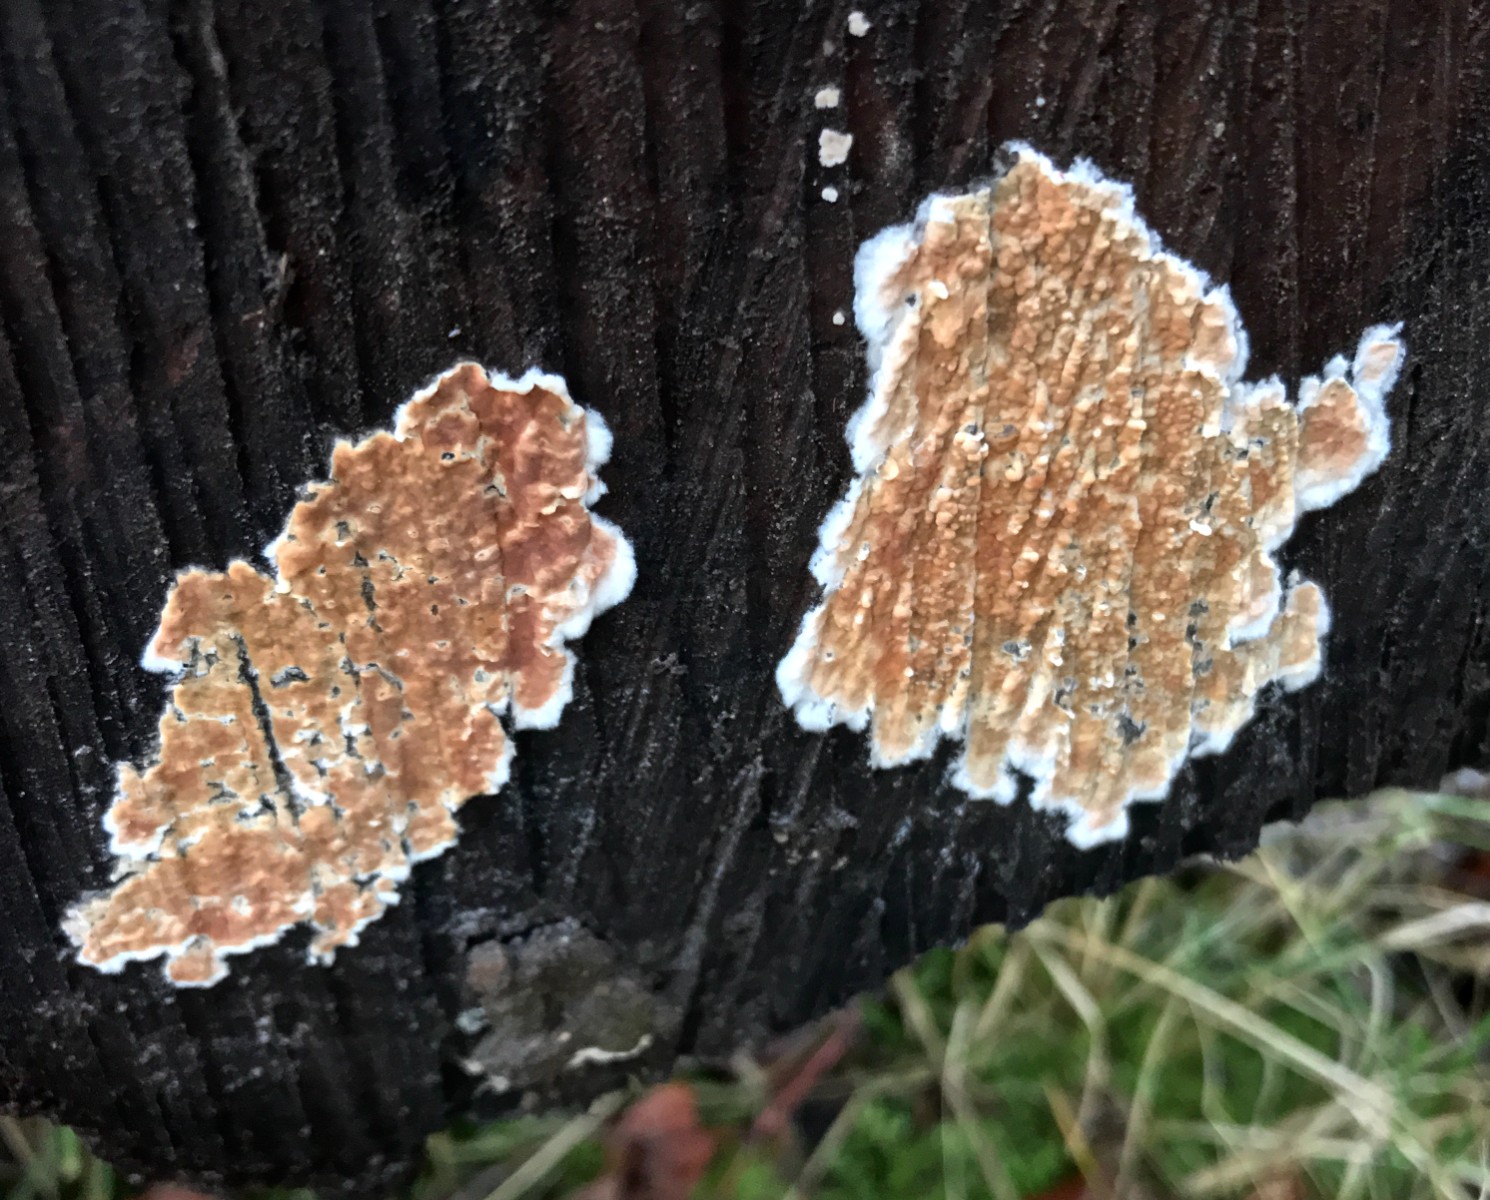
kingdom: Fungi
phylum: Basidiomycota
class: Agaricomycetes
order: Russulales
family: Peniophoraceae
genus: Peniophora
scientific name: Peniophora incarnata
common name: laksefarvet voksskind
